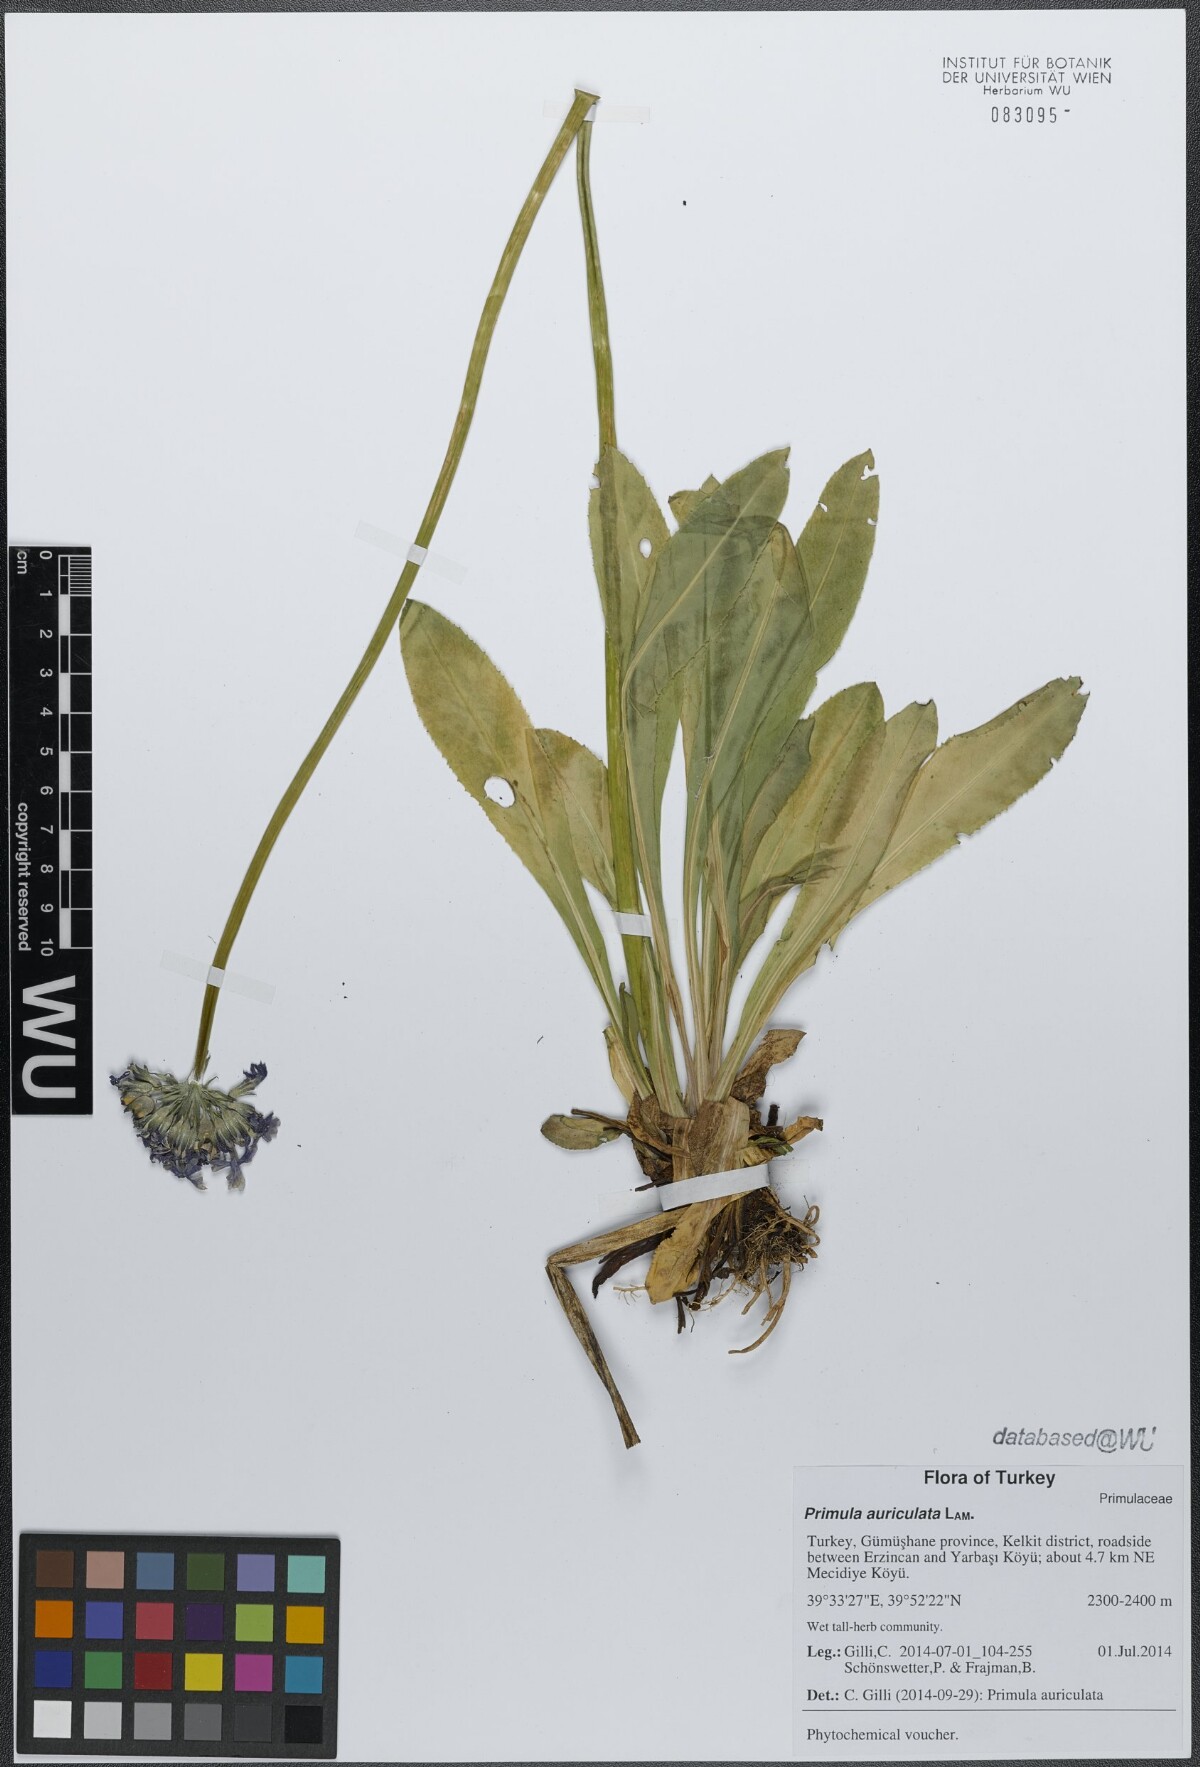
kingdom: Plantae
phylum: Tracheophyta
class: Magnoliopsida
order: Ericales
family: Primulaceae
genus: Primula
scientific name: Primula auriculata
